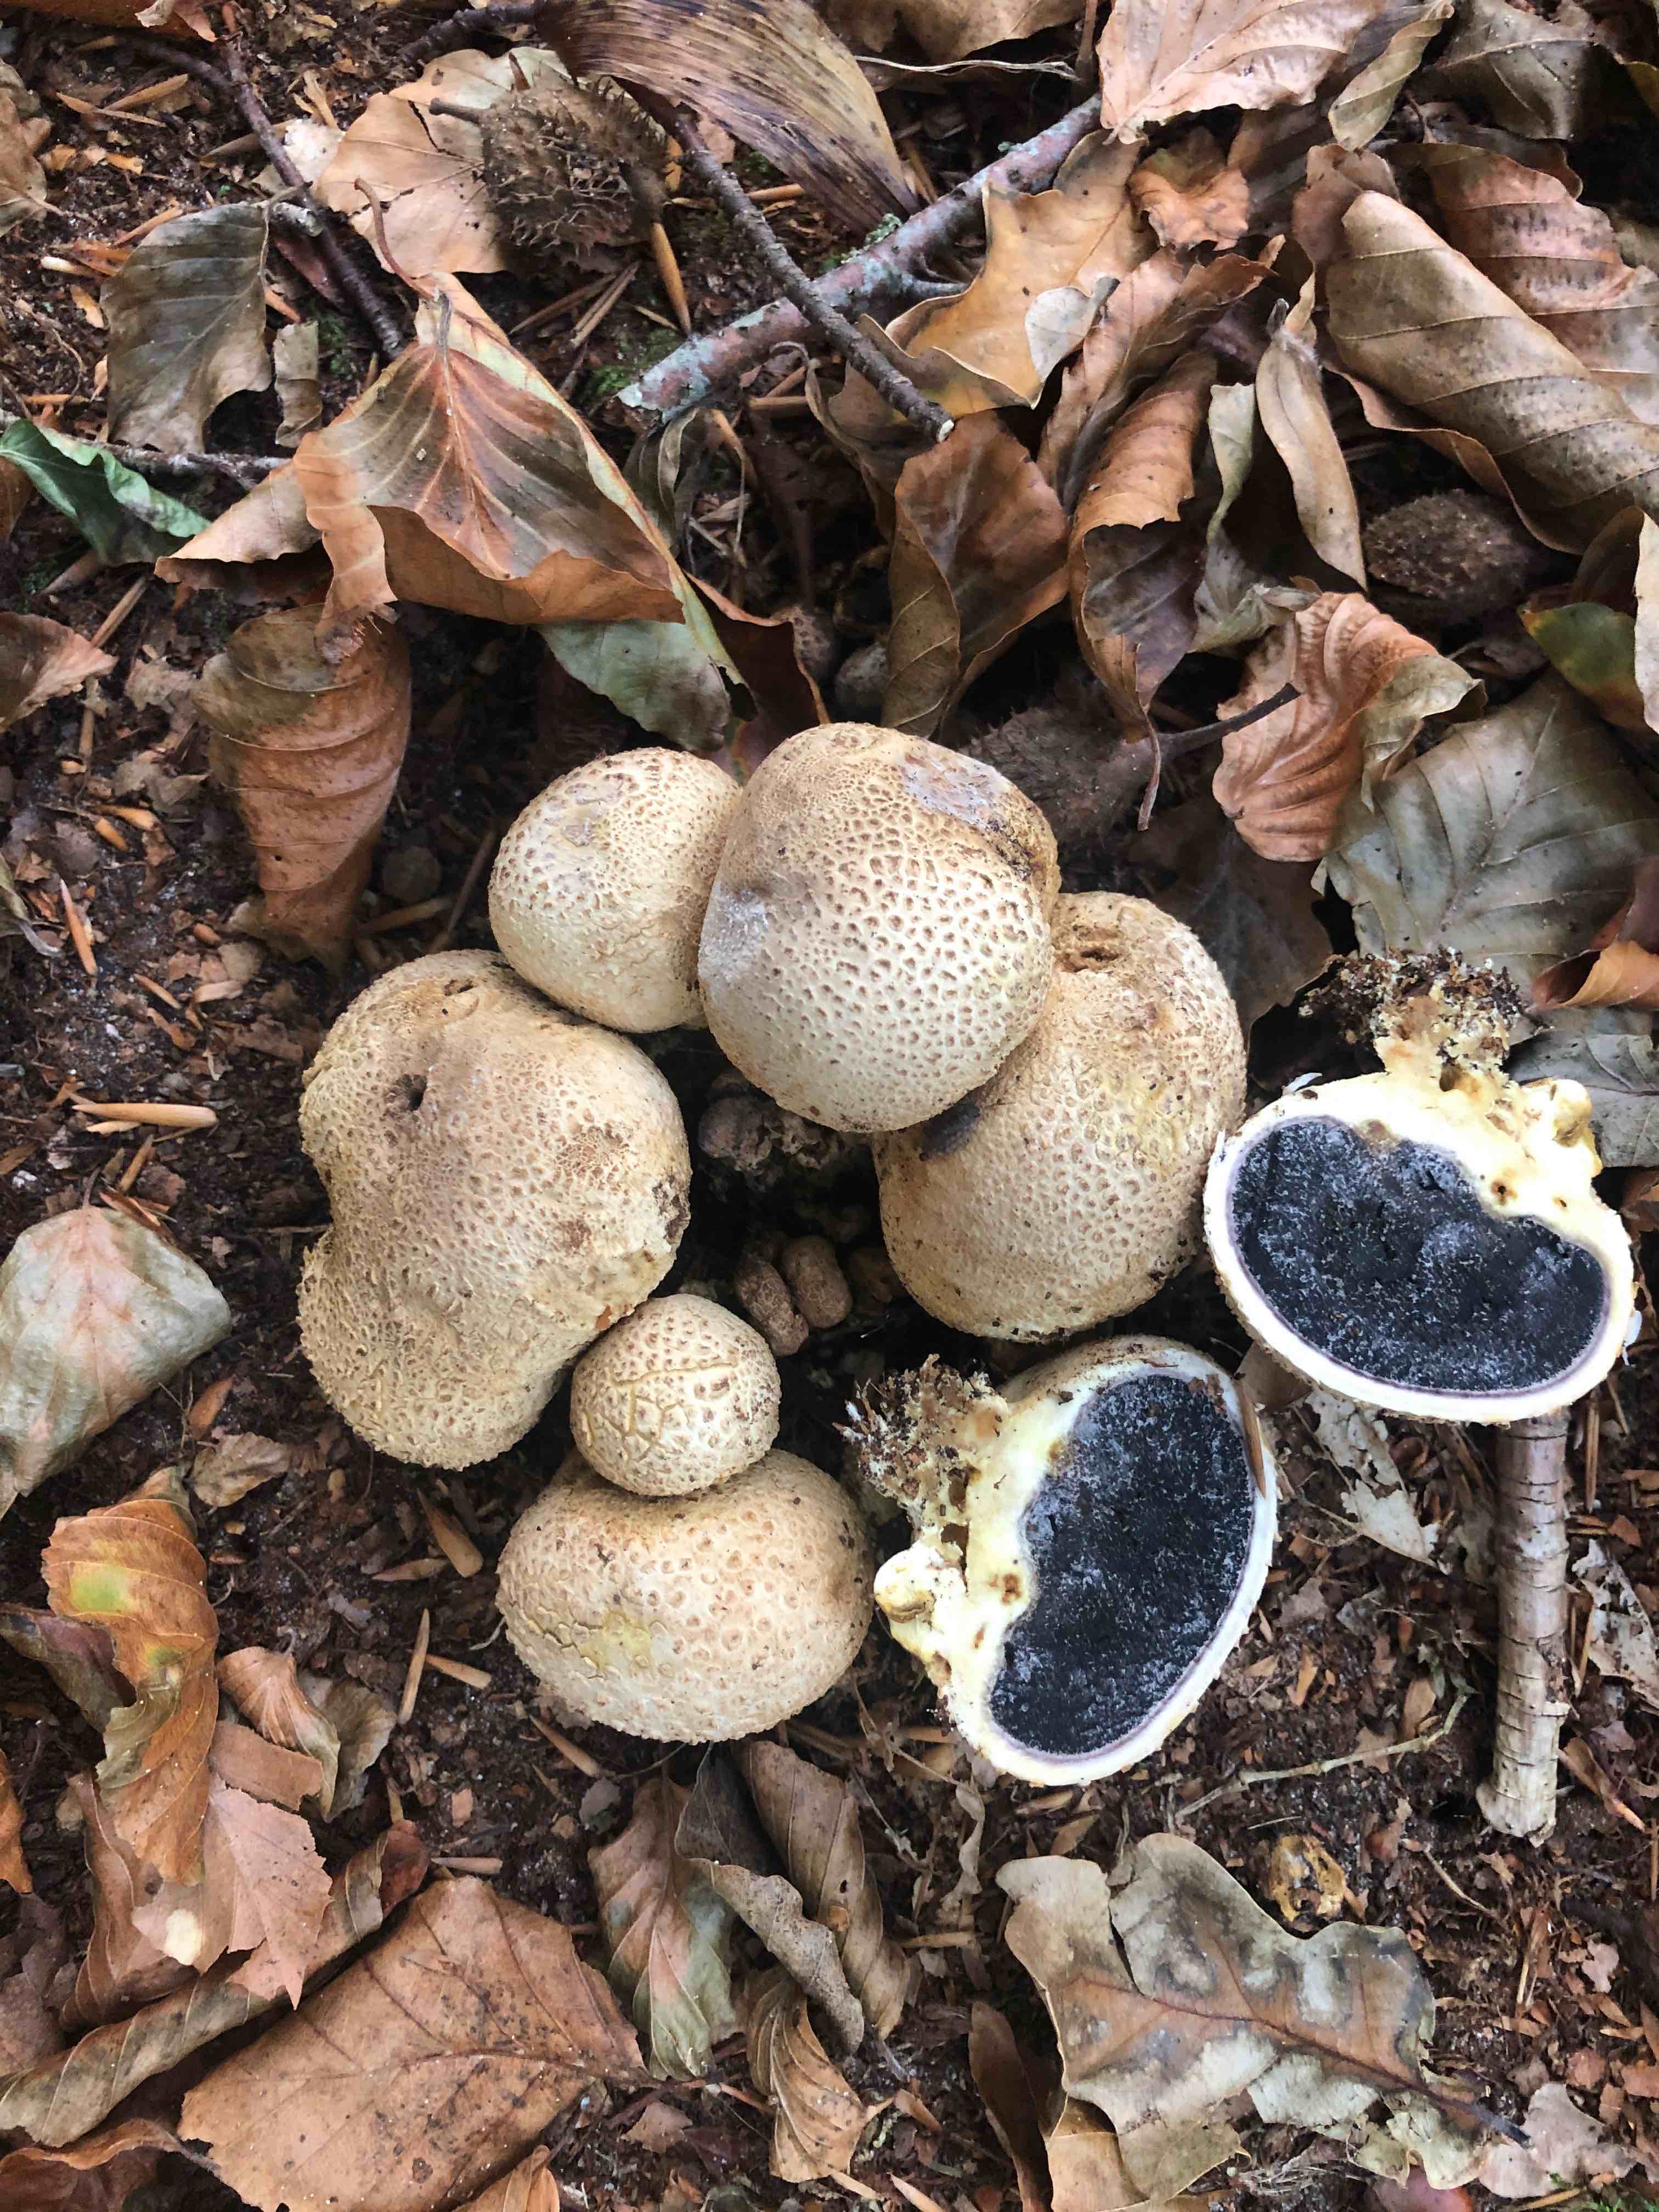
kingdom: Fungi
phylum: Basidiomycota
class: Agaricomycetes
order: Boletales
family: Sclerodermataceae
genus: Scleroderma
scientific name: Scleroderma citrinum
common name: almindelig bruskbold
